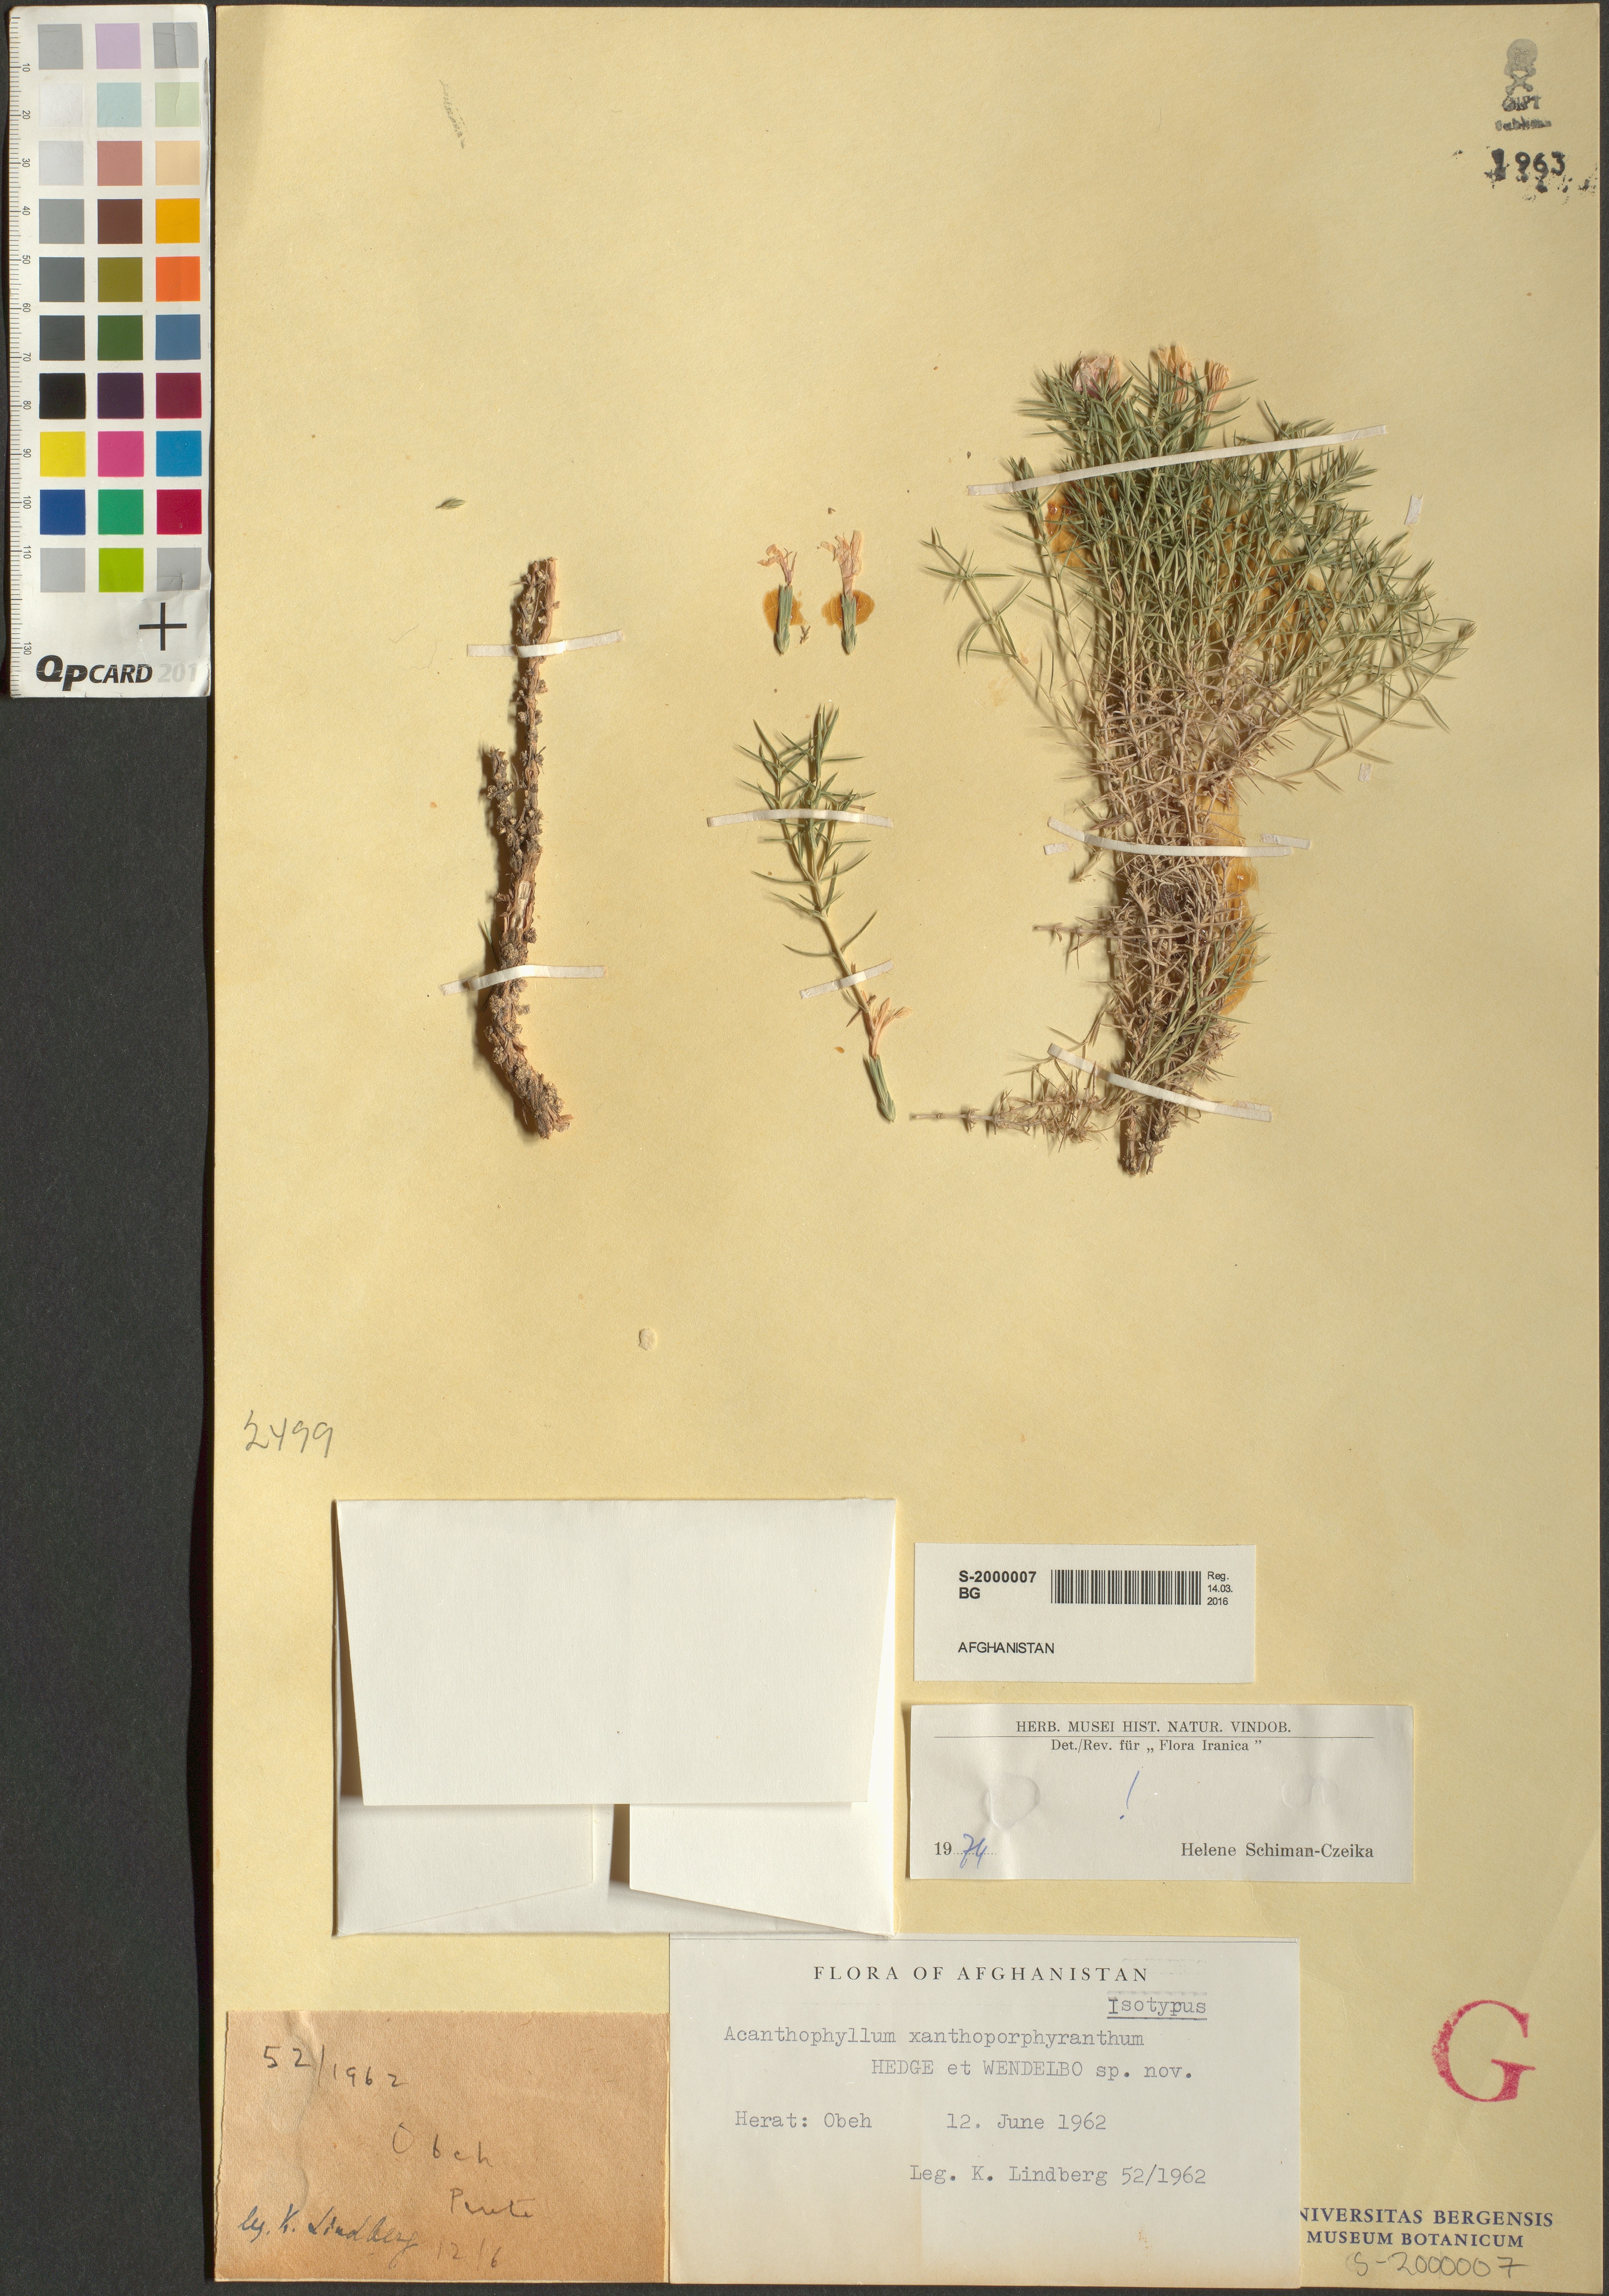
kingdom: Plantae
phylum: Tracheophyta
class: Magnoliopsida
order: Caryophyllales
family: Caryophyllaceae
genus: Acanthophyllum
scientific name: Acanthophyllum xanthoporphyranthum
